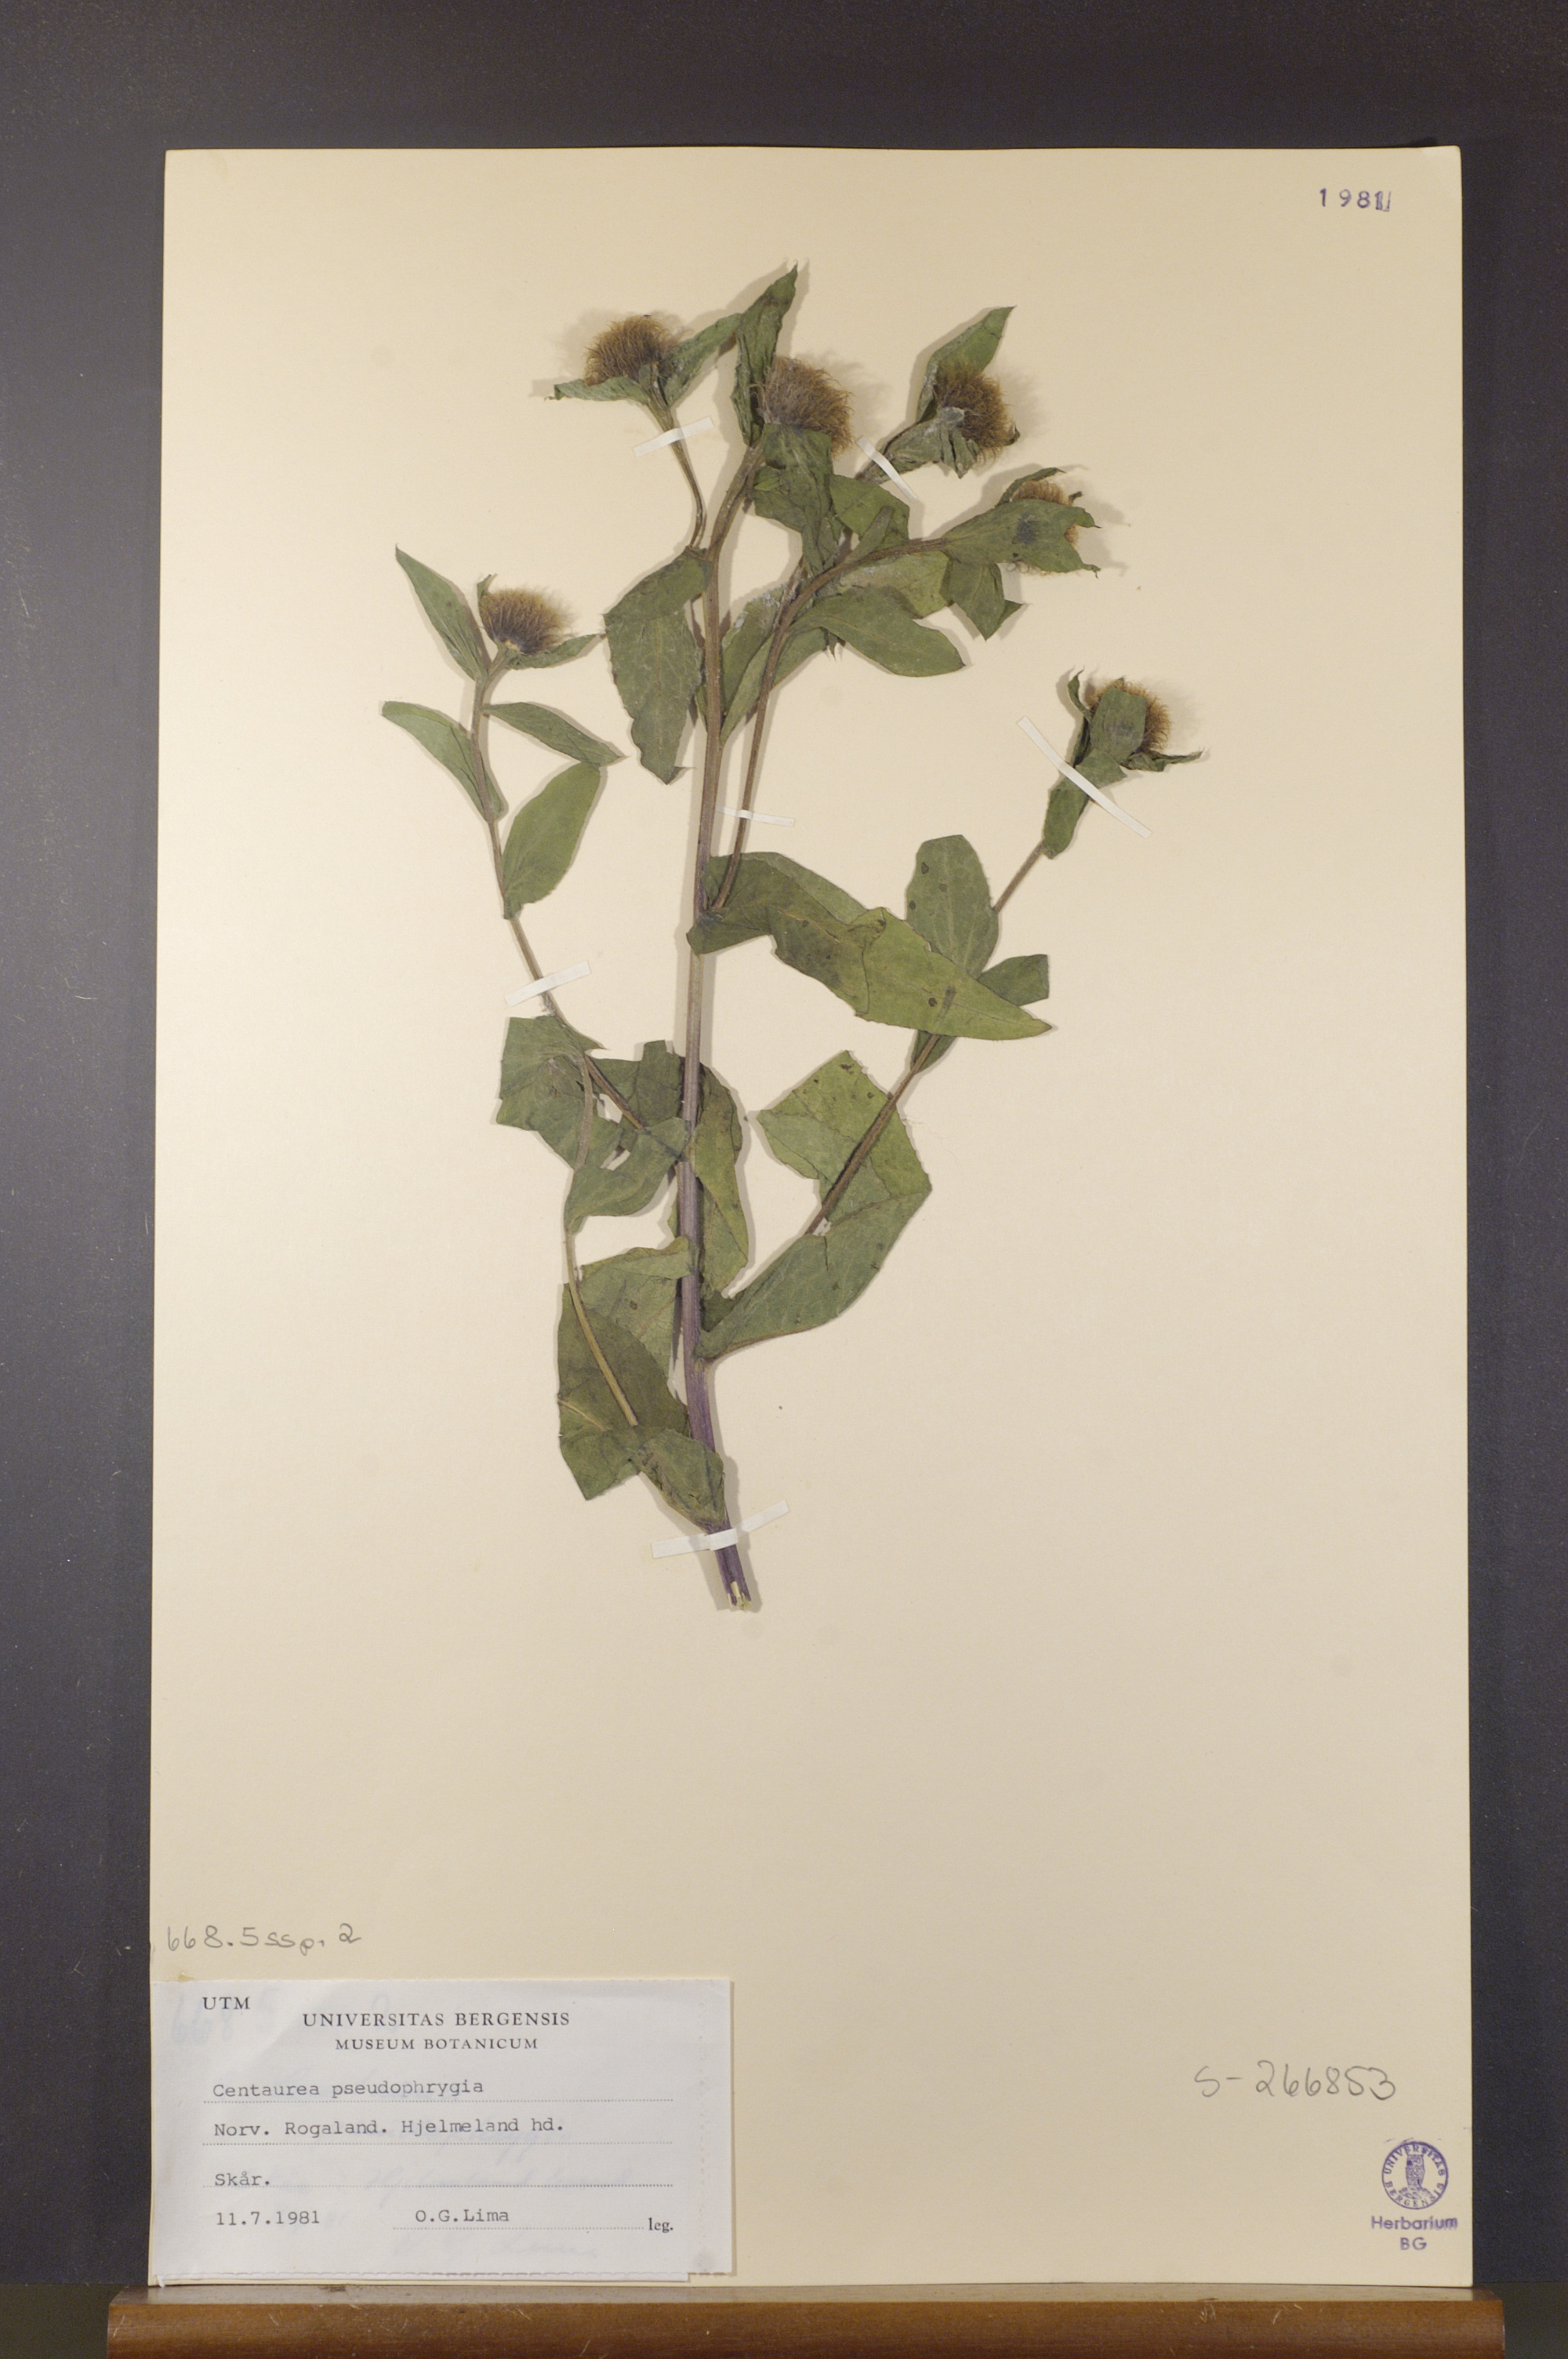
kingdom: Plantae
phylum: Tracheophyta
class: Magnoliopsida
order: Asterales
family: Asteraceae
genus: Centaurea
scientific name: Centaurea pseudophrygia
